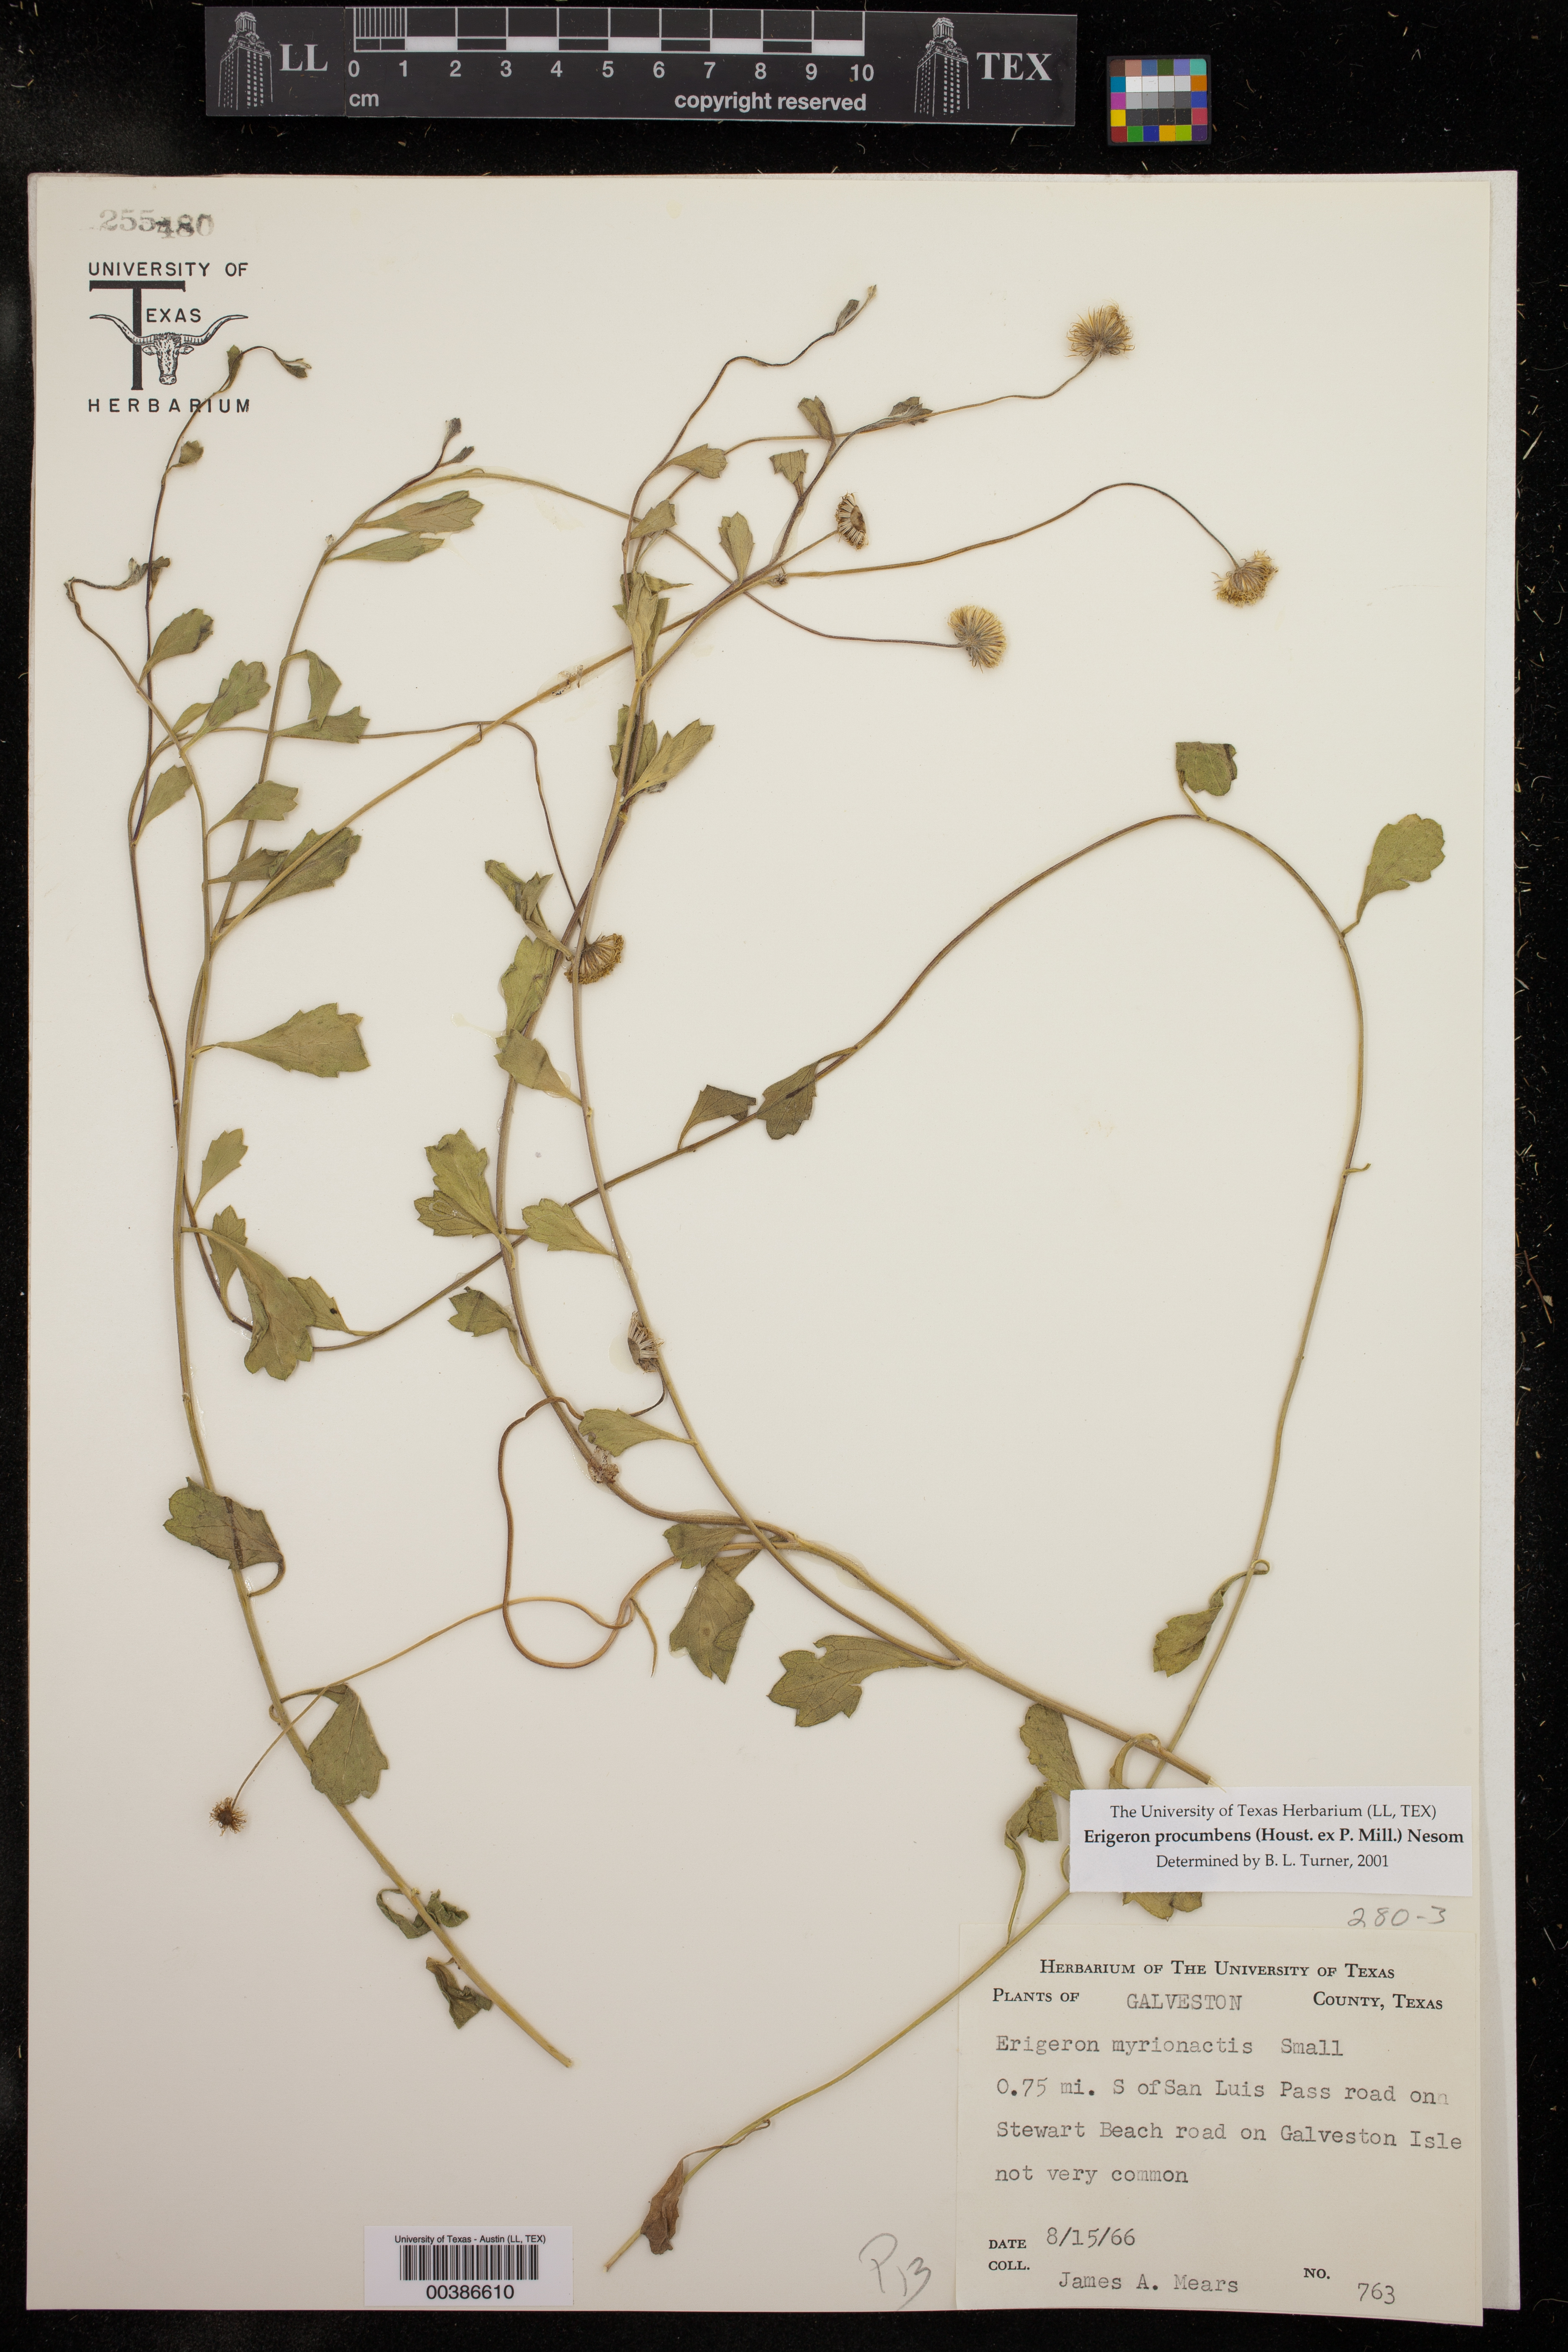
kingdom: Plantae
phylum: Tracheophyta
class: Magnoliopsida
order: Asterales
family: Asteraceae
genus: Erigeron
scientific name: Erigeron procumbens
